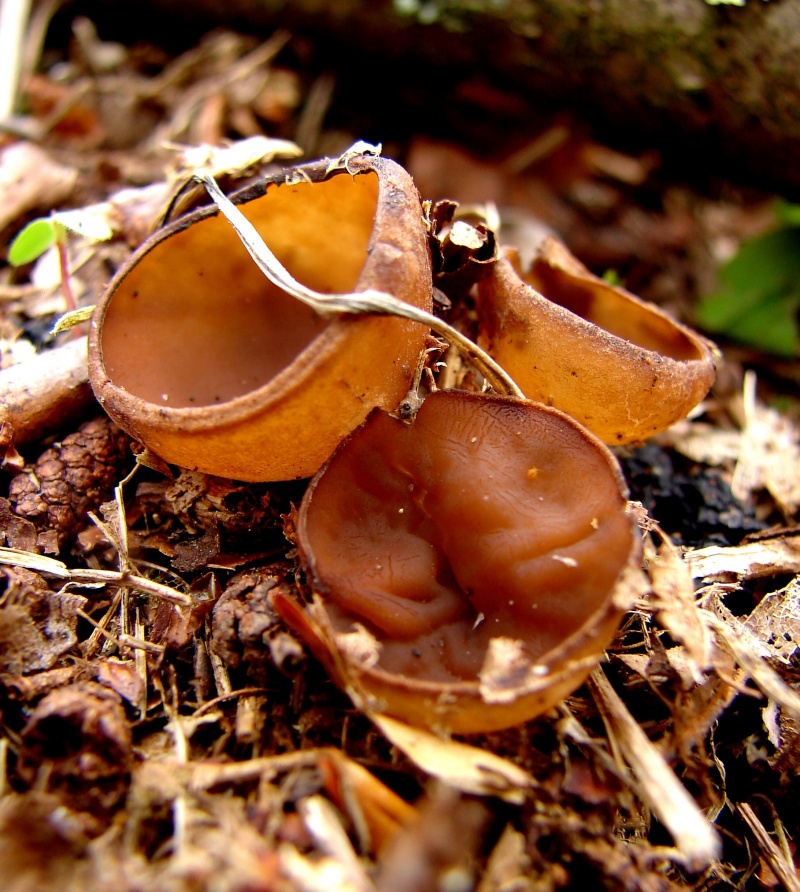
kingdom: Fungi
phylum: Ascomycota
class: Leotiomycetes
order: Helotiales
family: Sclerotiniaceae
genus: Dumontinia
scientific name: Dumontinia tuberosa
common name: anemone-knoldskive
